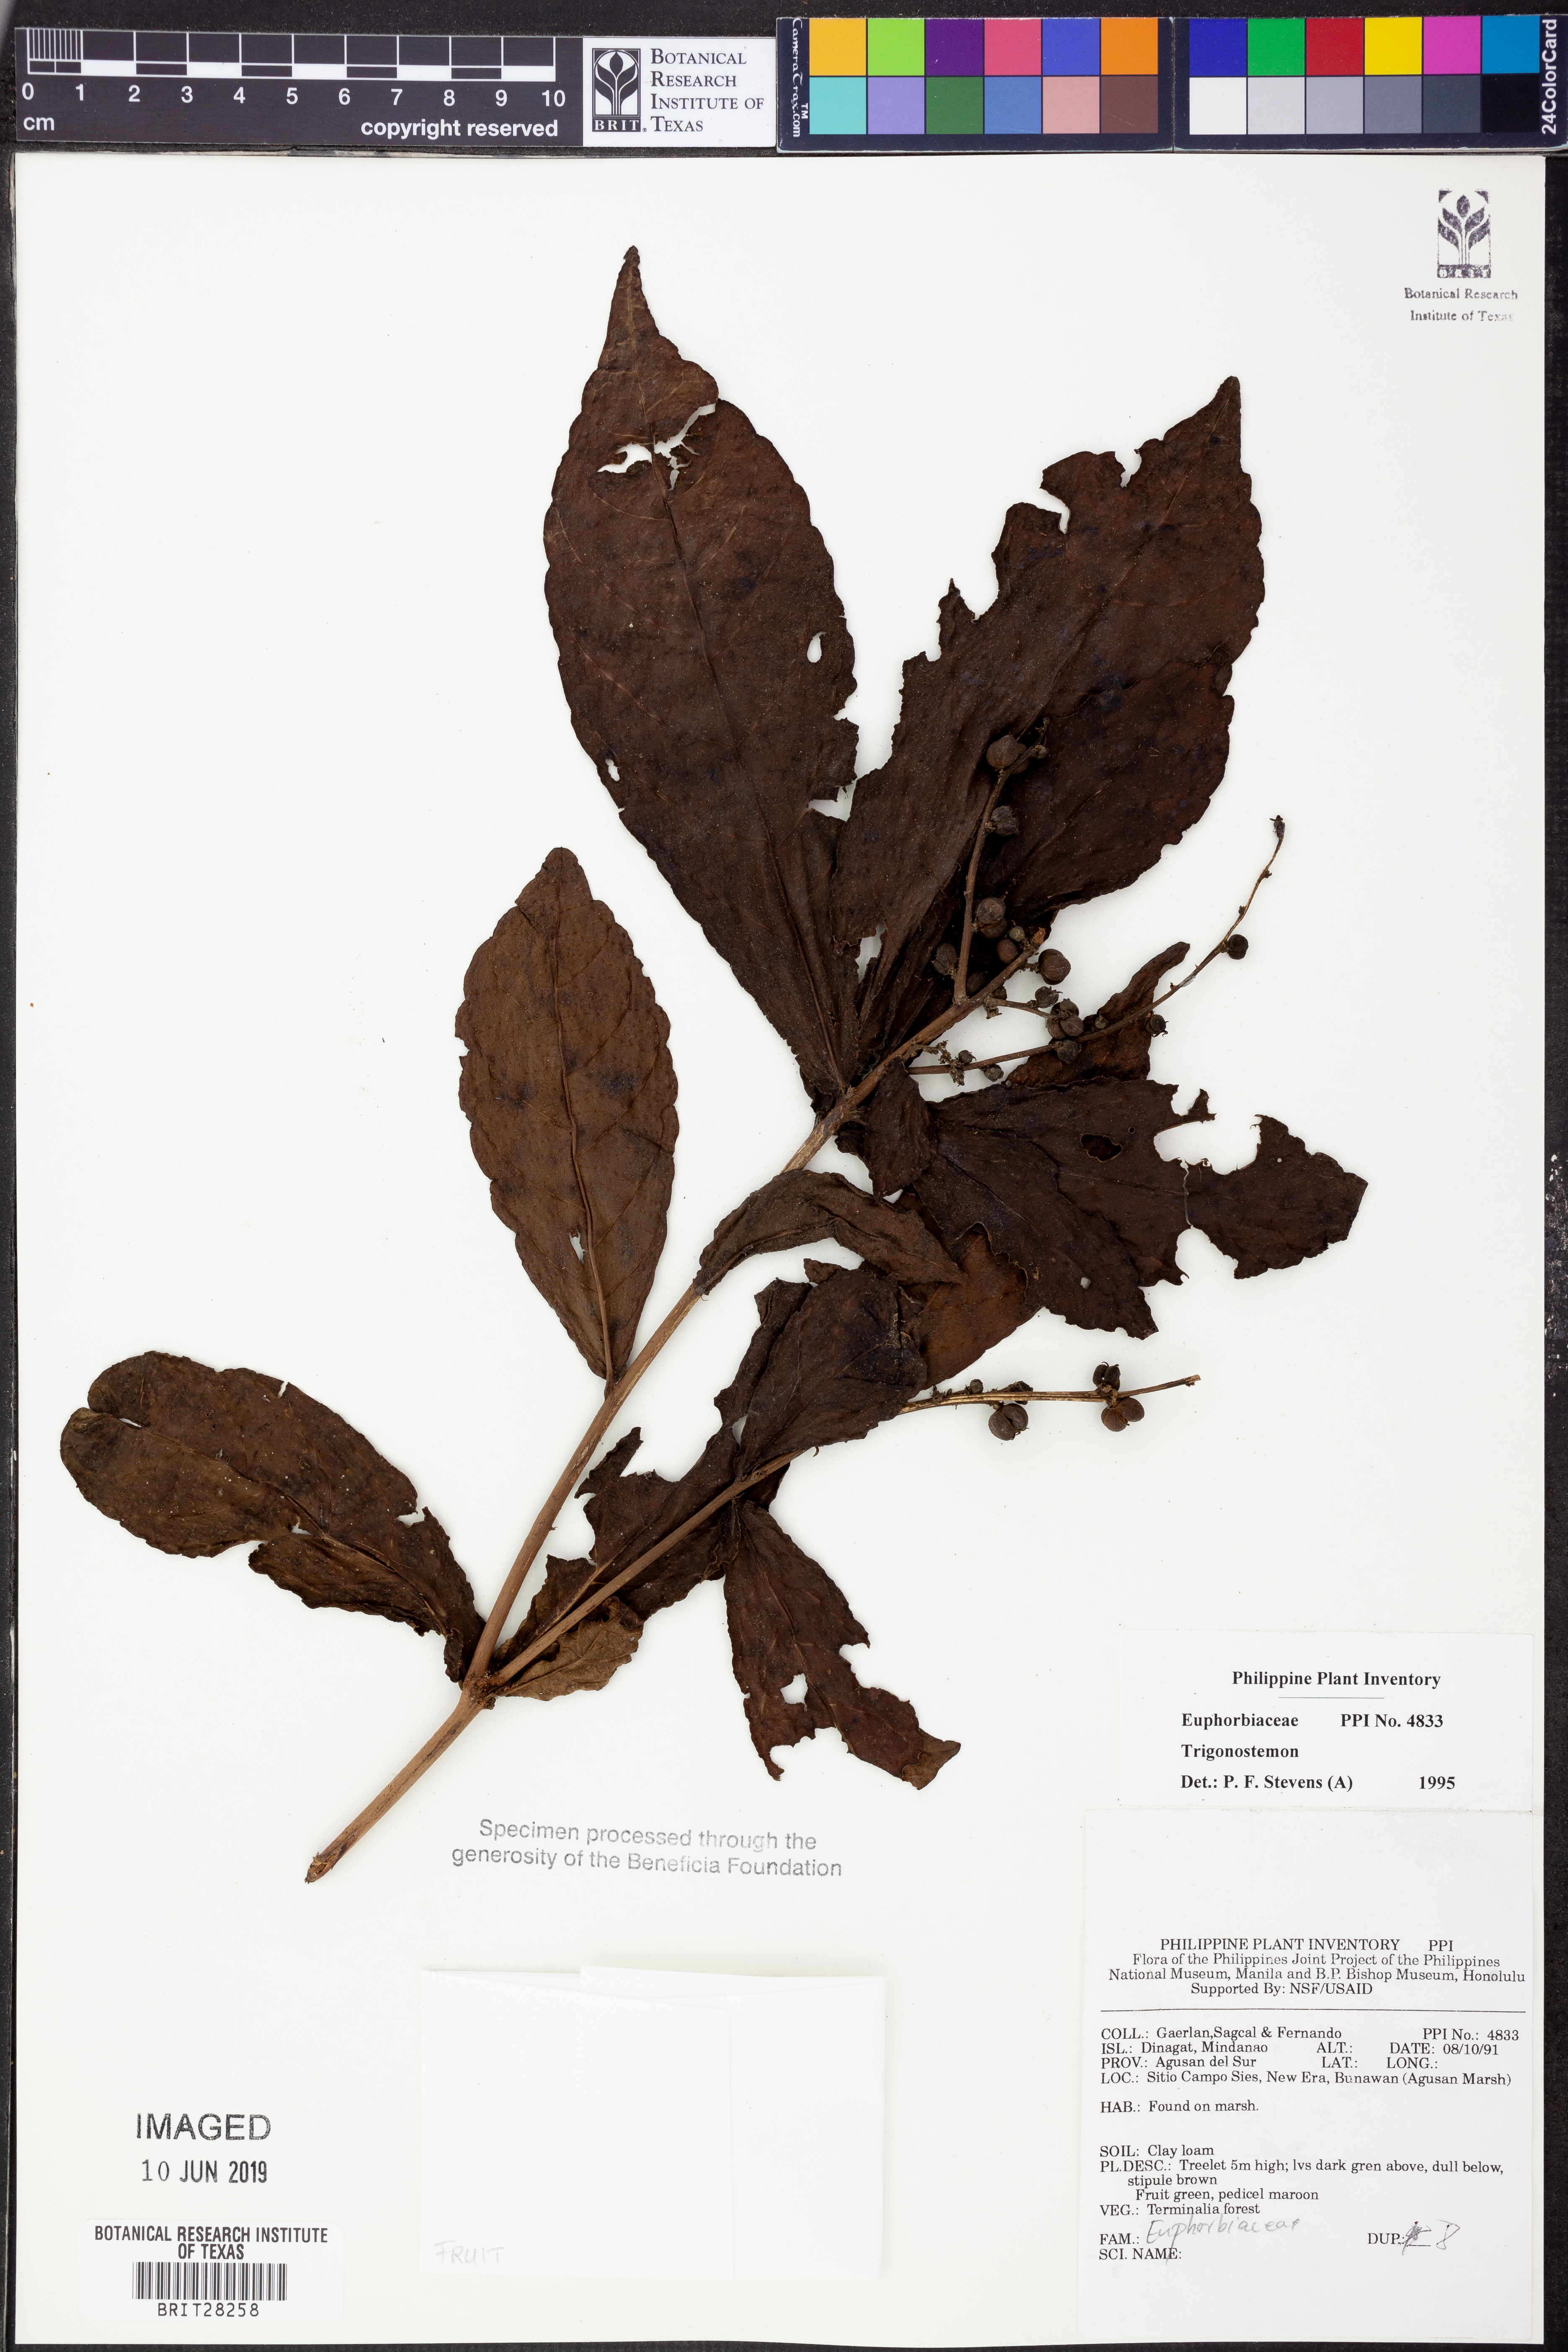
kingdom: Plantae
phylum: Tracheophyta
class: Magnoliopsida
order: Malpighiales
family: Euphorbiaceae
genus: Trigonostemon
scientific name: Trigonostemon
